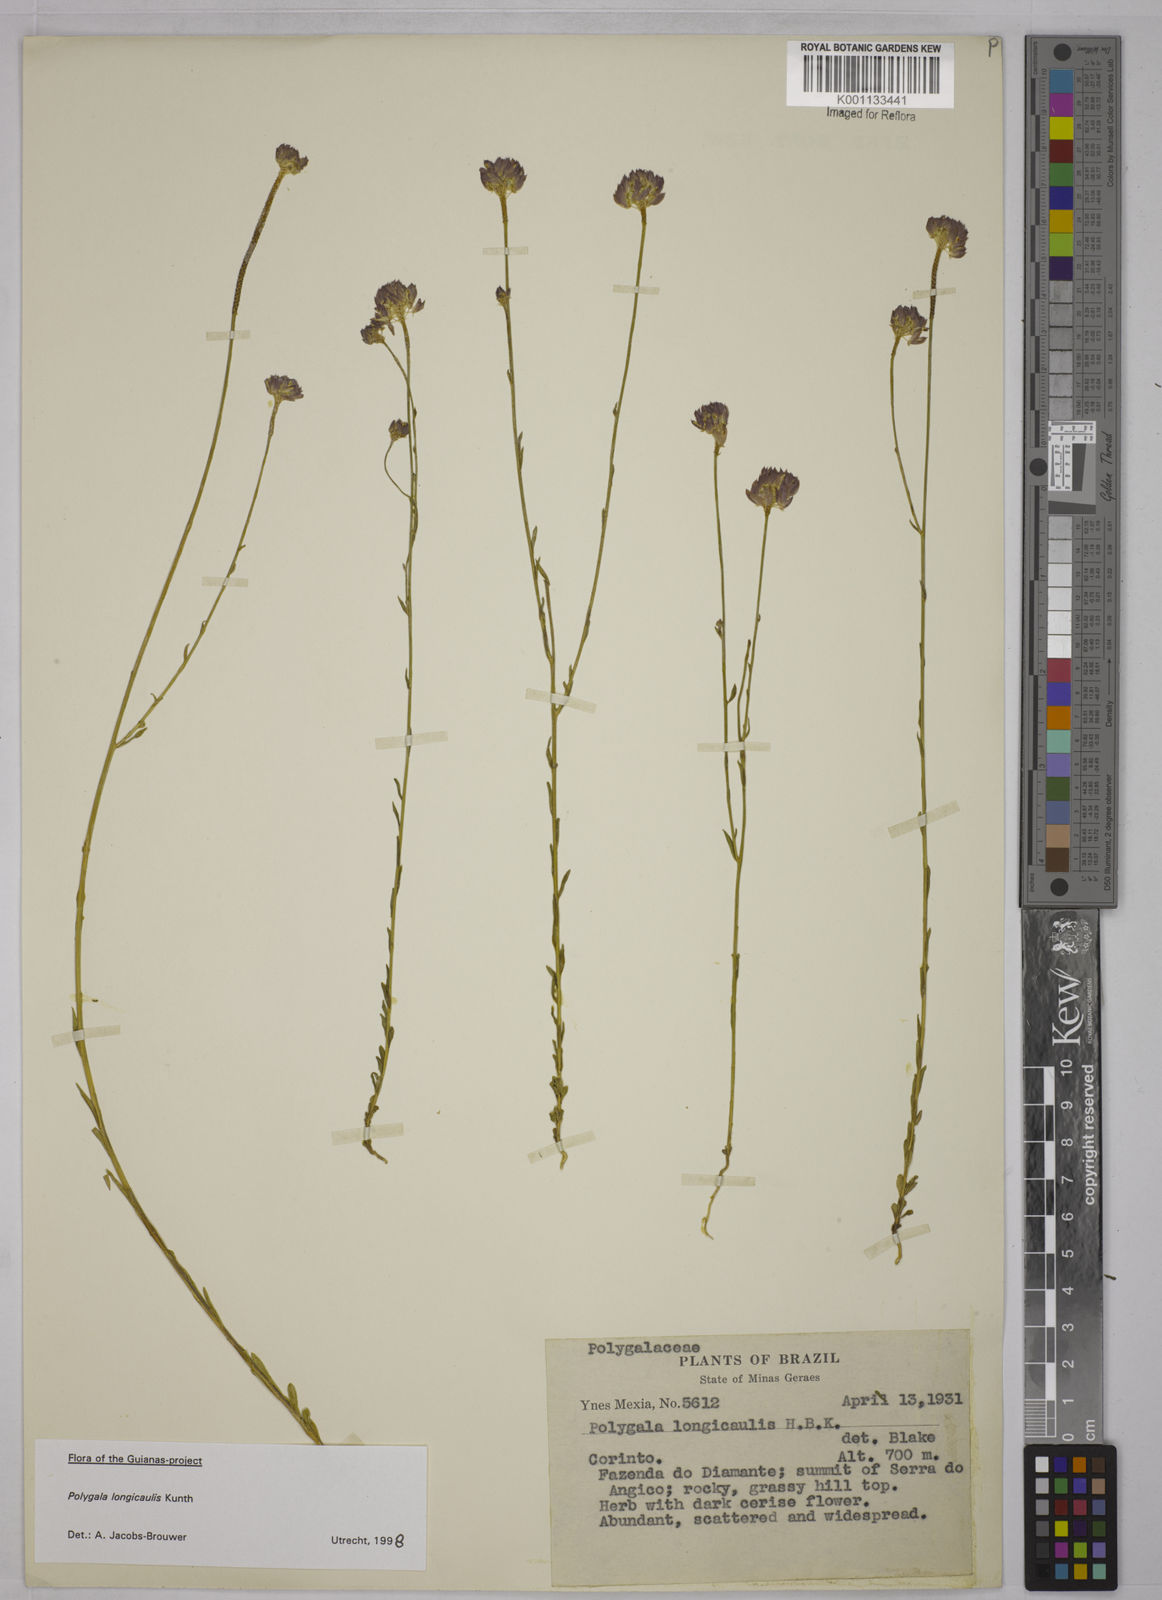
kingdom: Plantae
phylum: Tracheophyta
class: Magnoliopsida
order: Fabales
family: Polygalaceae
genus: Polygala
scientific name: Polygala longicaulis
